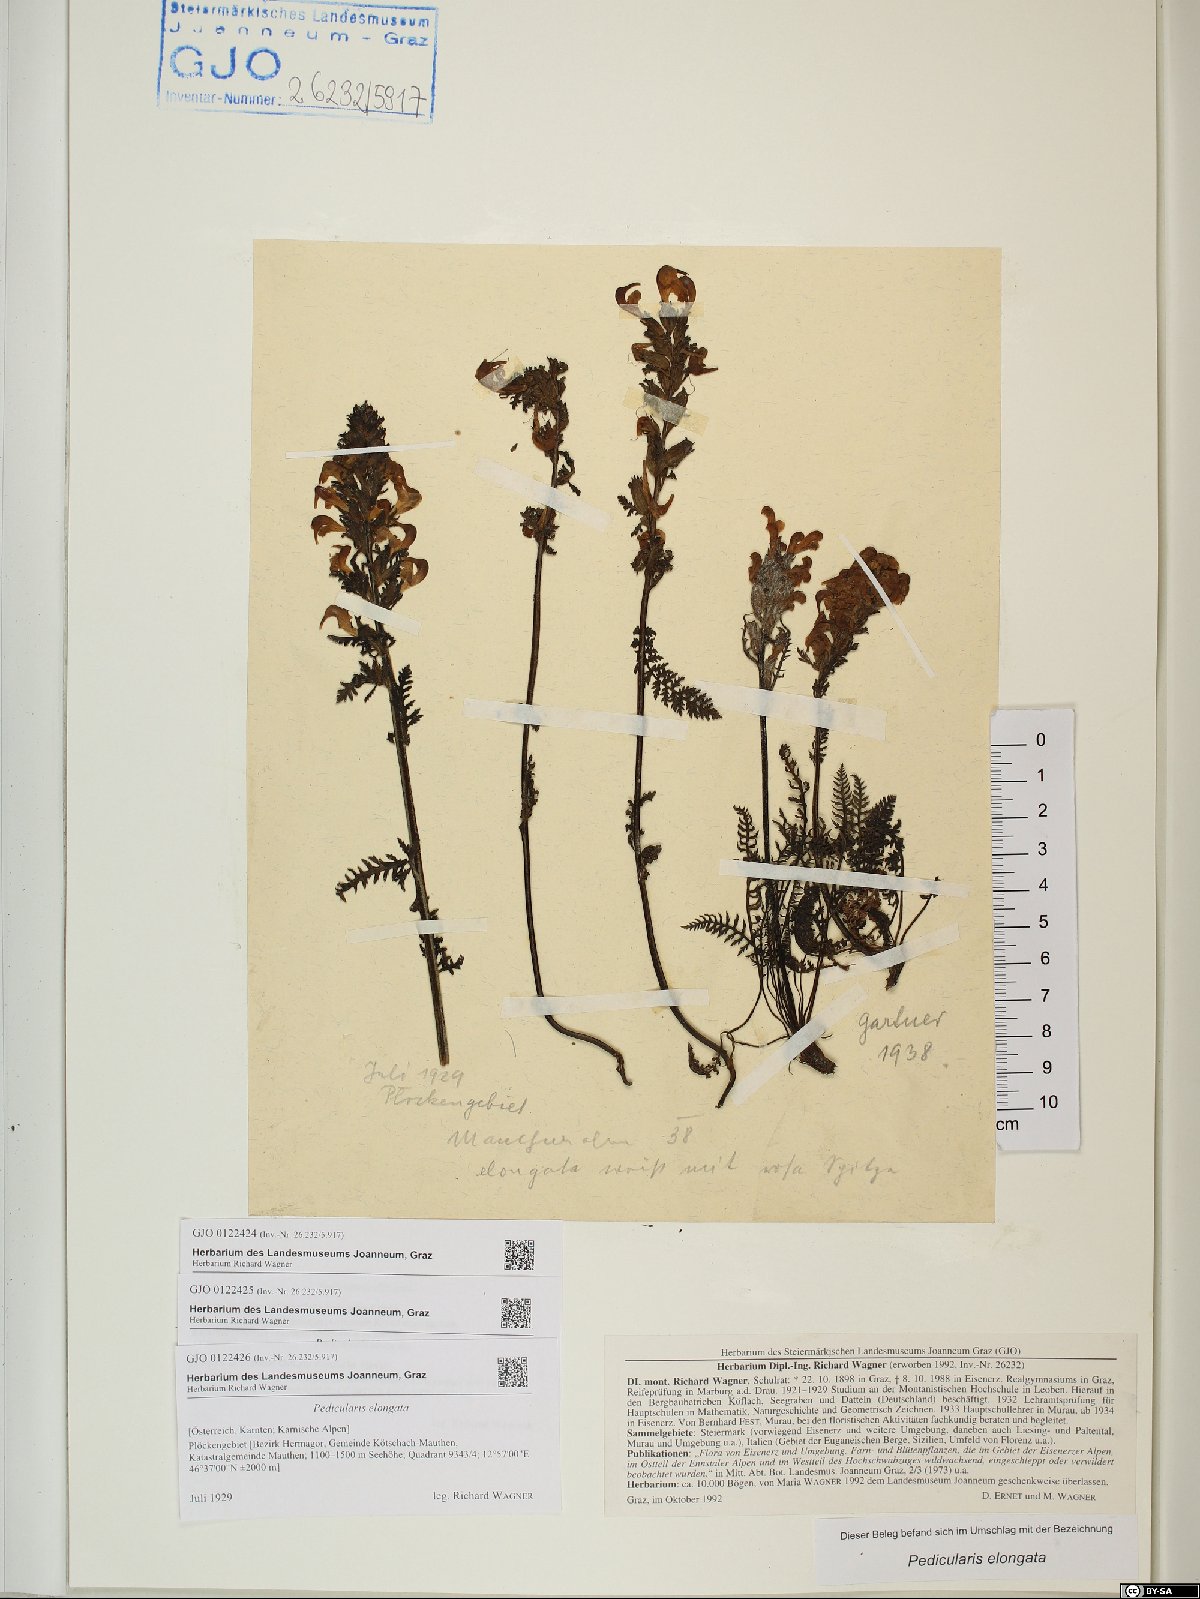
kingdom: Plantae
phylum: Tracheophyta
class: Magnoliopsida
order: Lamiales
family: Orobanchaceae
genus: Pedicularis
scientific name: Pedicularis elongata
